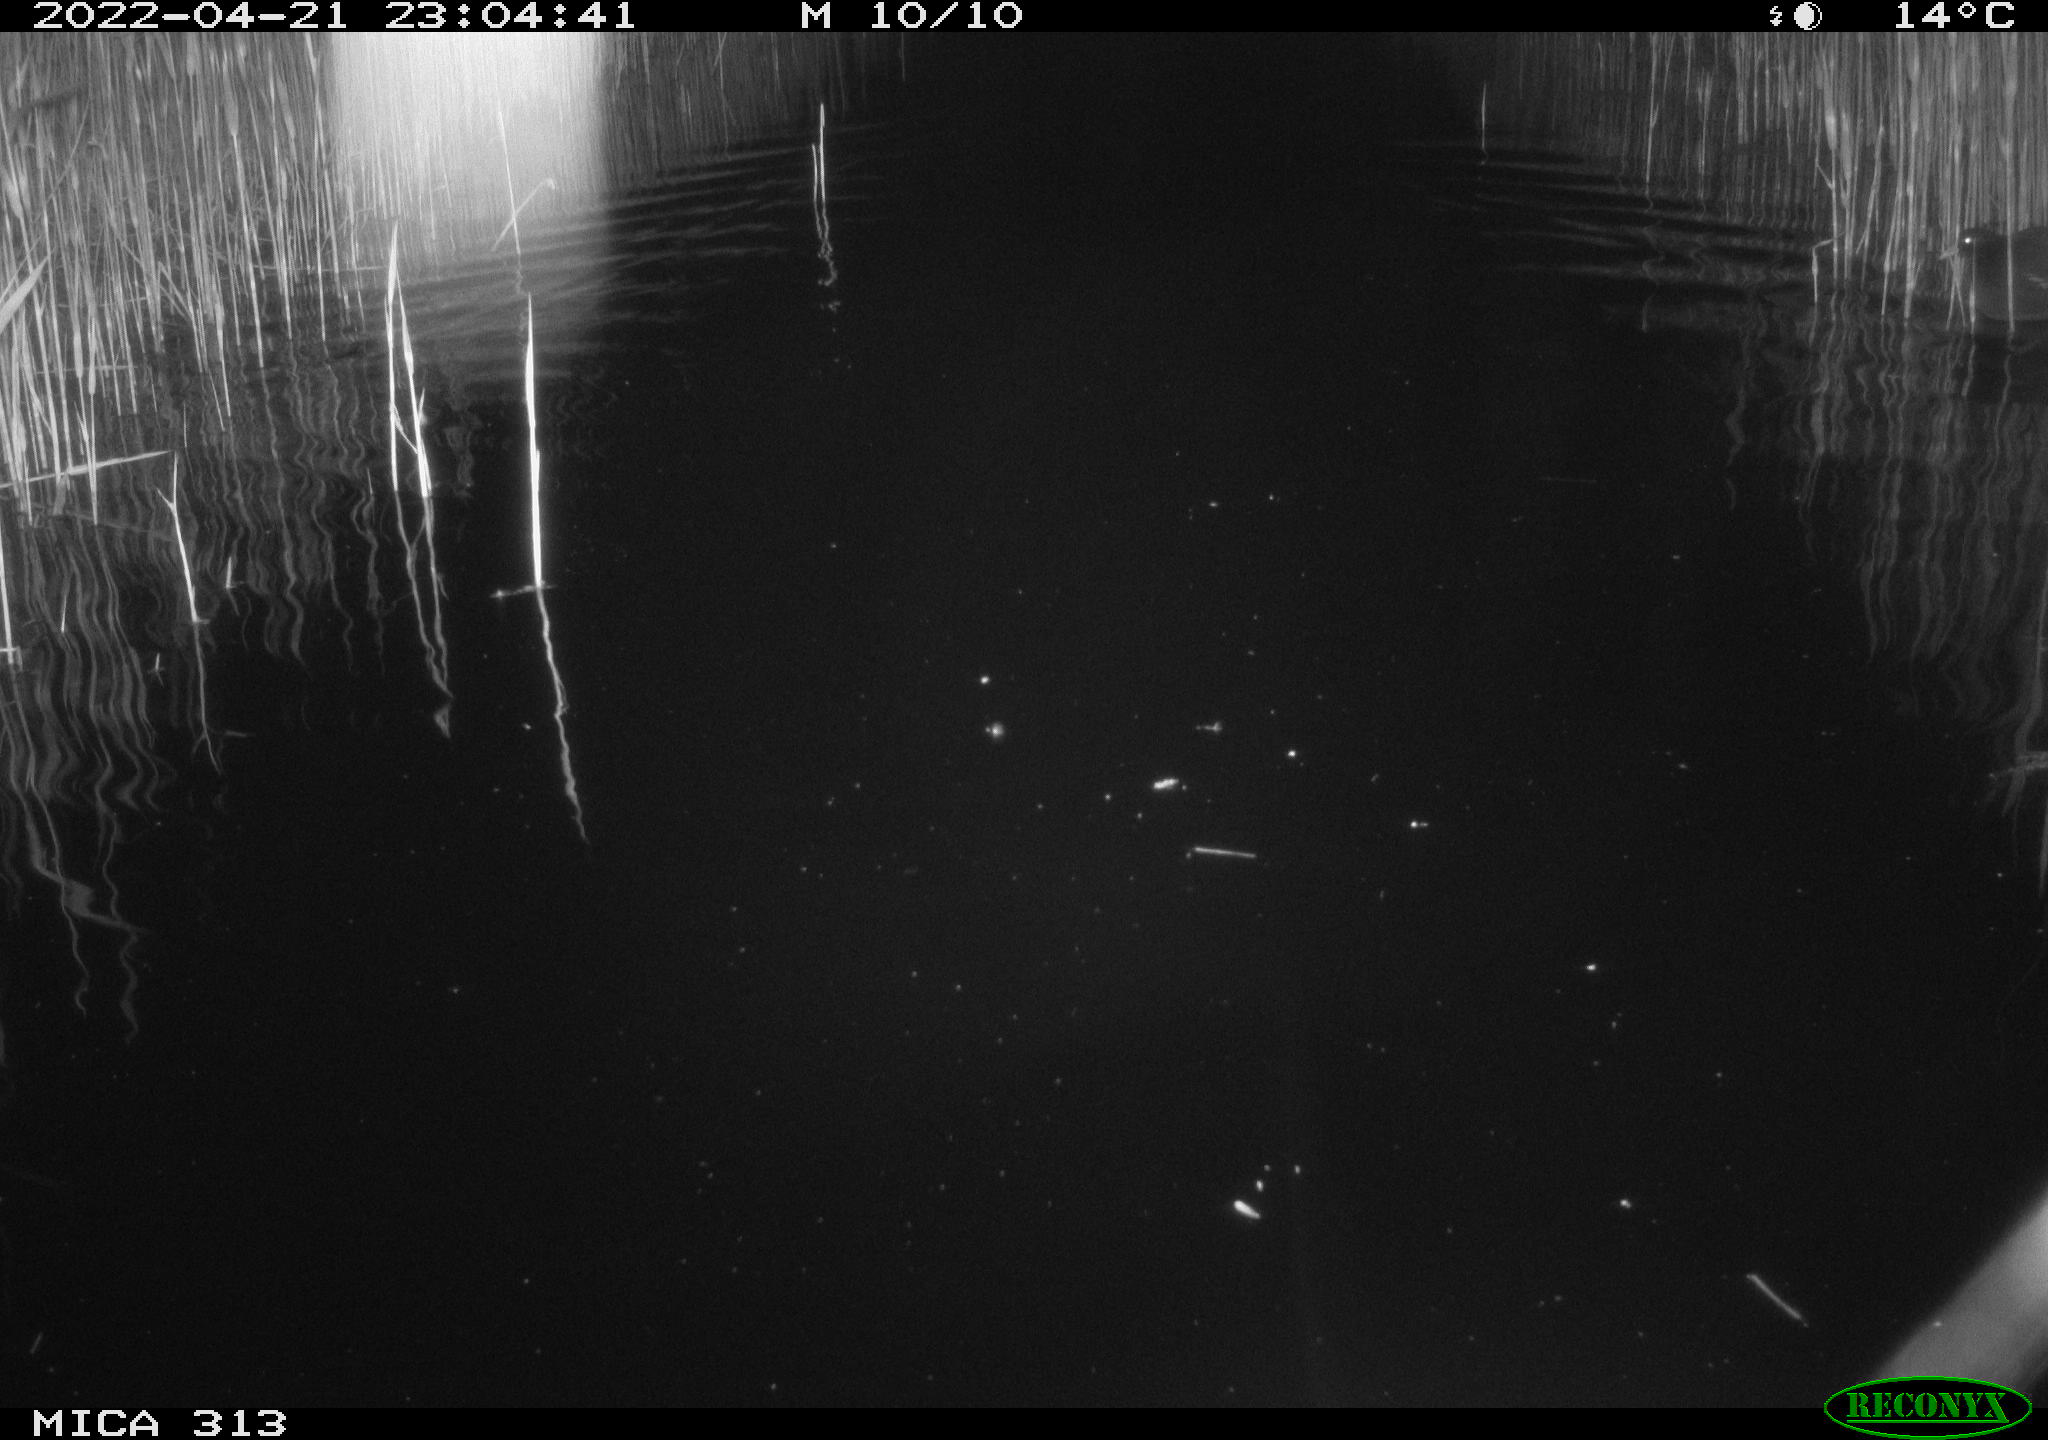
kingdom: Animalia
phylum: Chordata
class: Mammalia
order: Rodentia
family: Cricetidae
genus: Ondatra
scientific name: Ondatra zibethicus
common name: Muskrat
